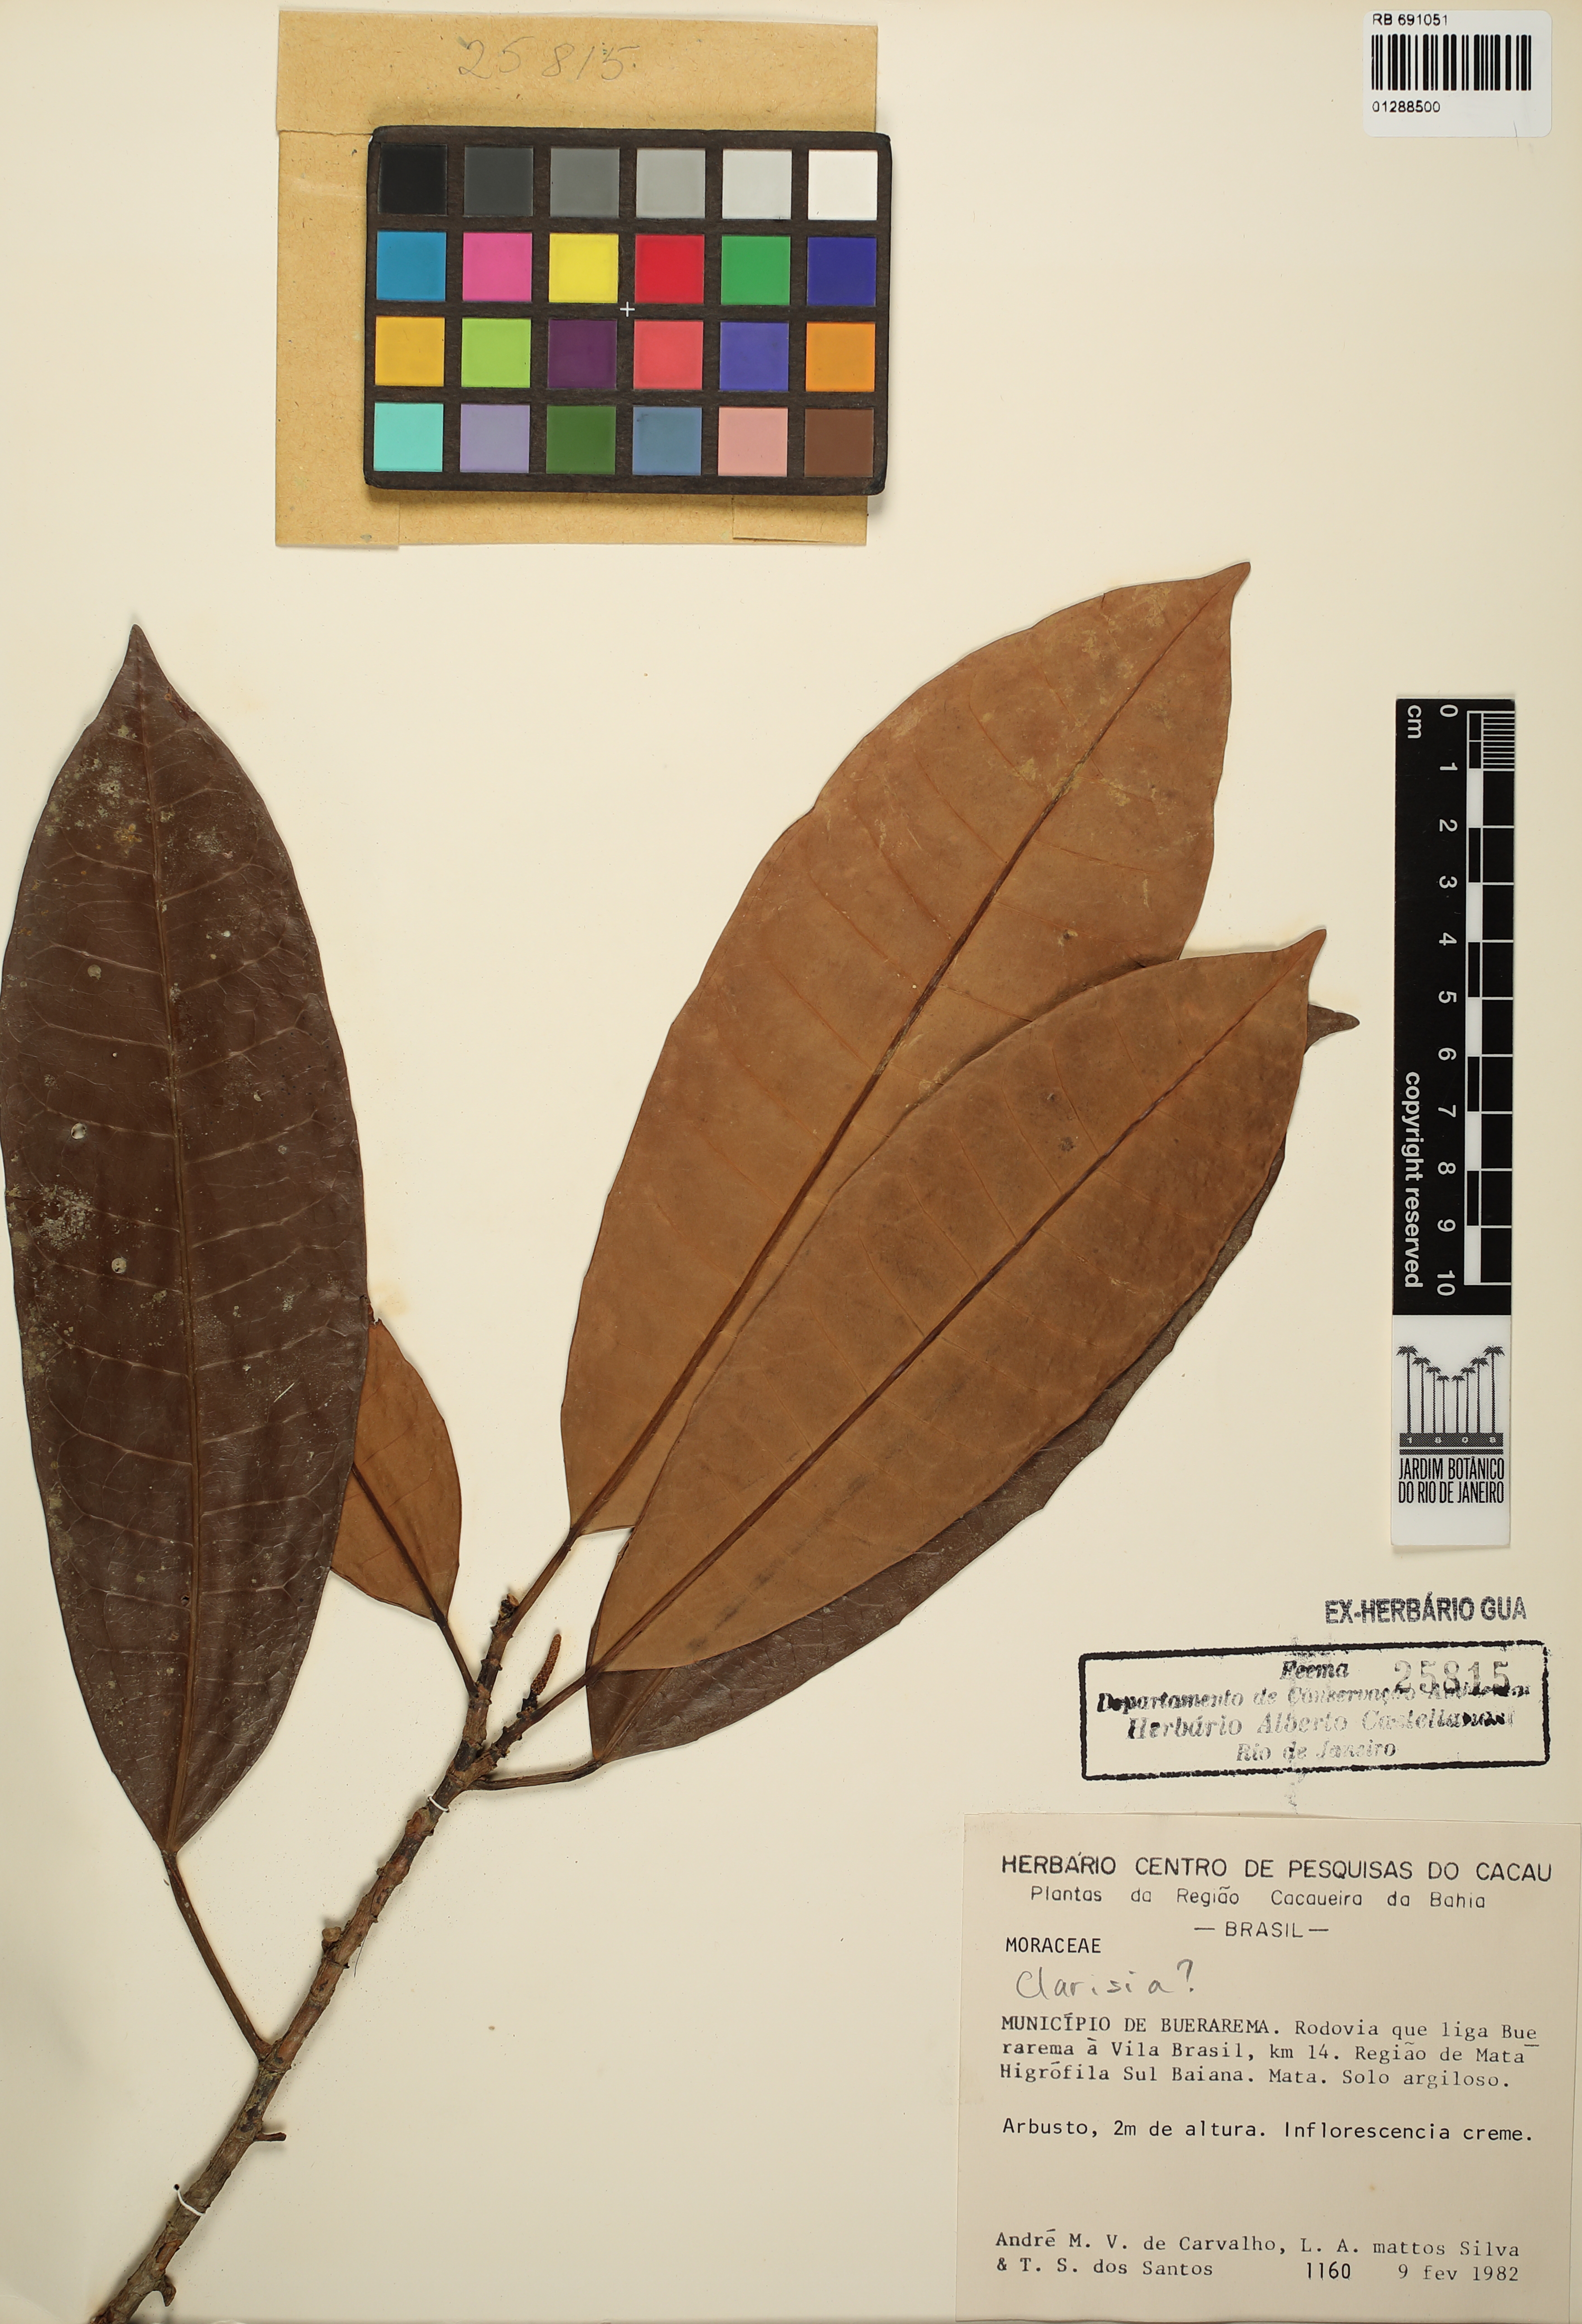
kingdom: Plantae
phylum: Tracheophyta
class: Magnoliopsida
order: Rosales
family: Moraceae
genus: Clarisia
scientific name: Clarisia
